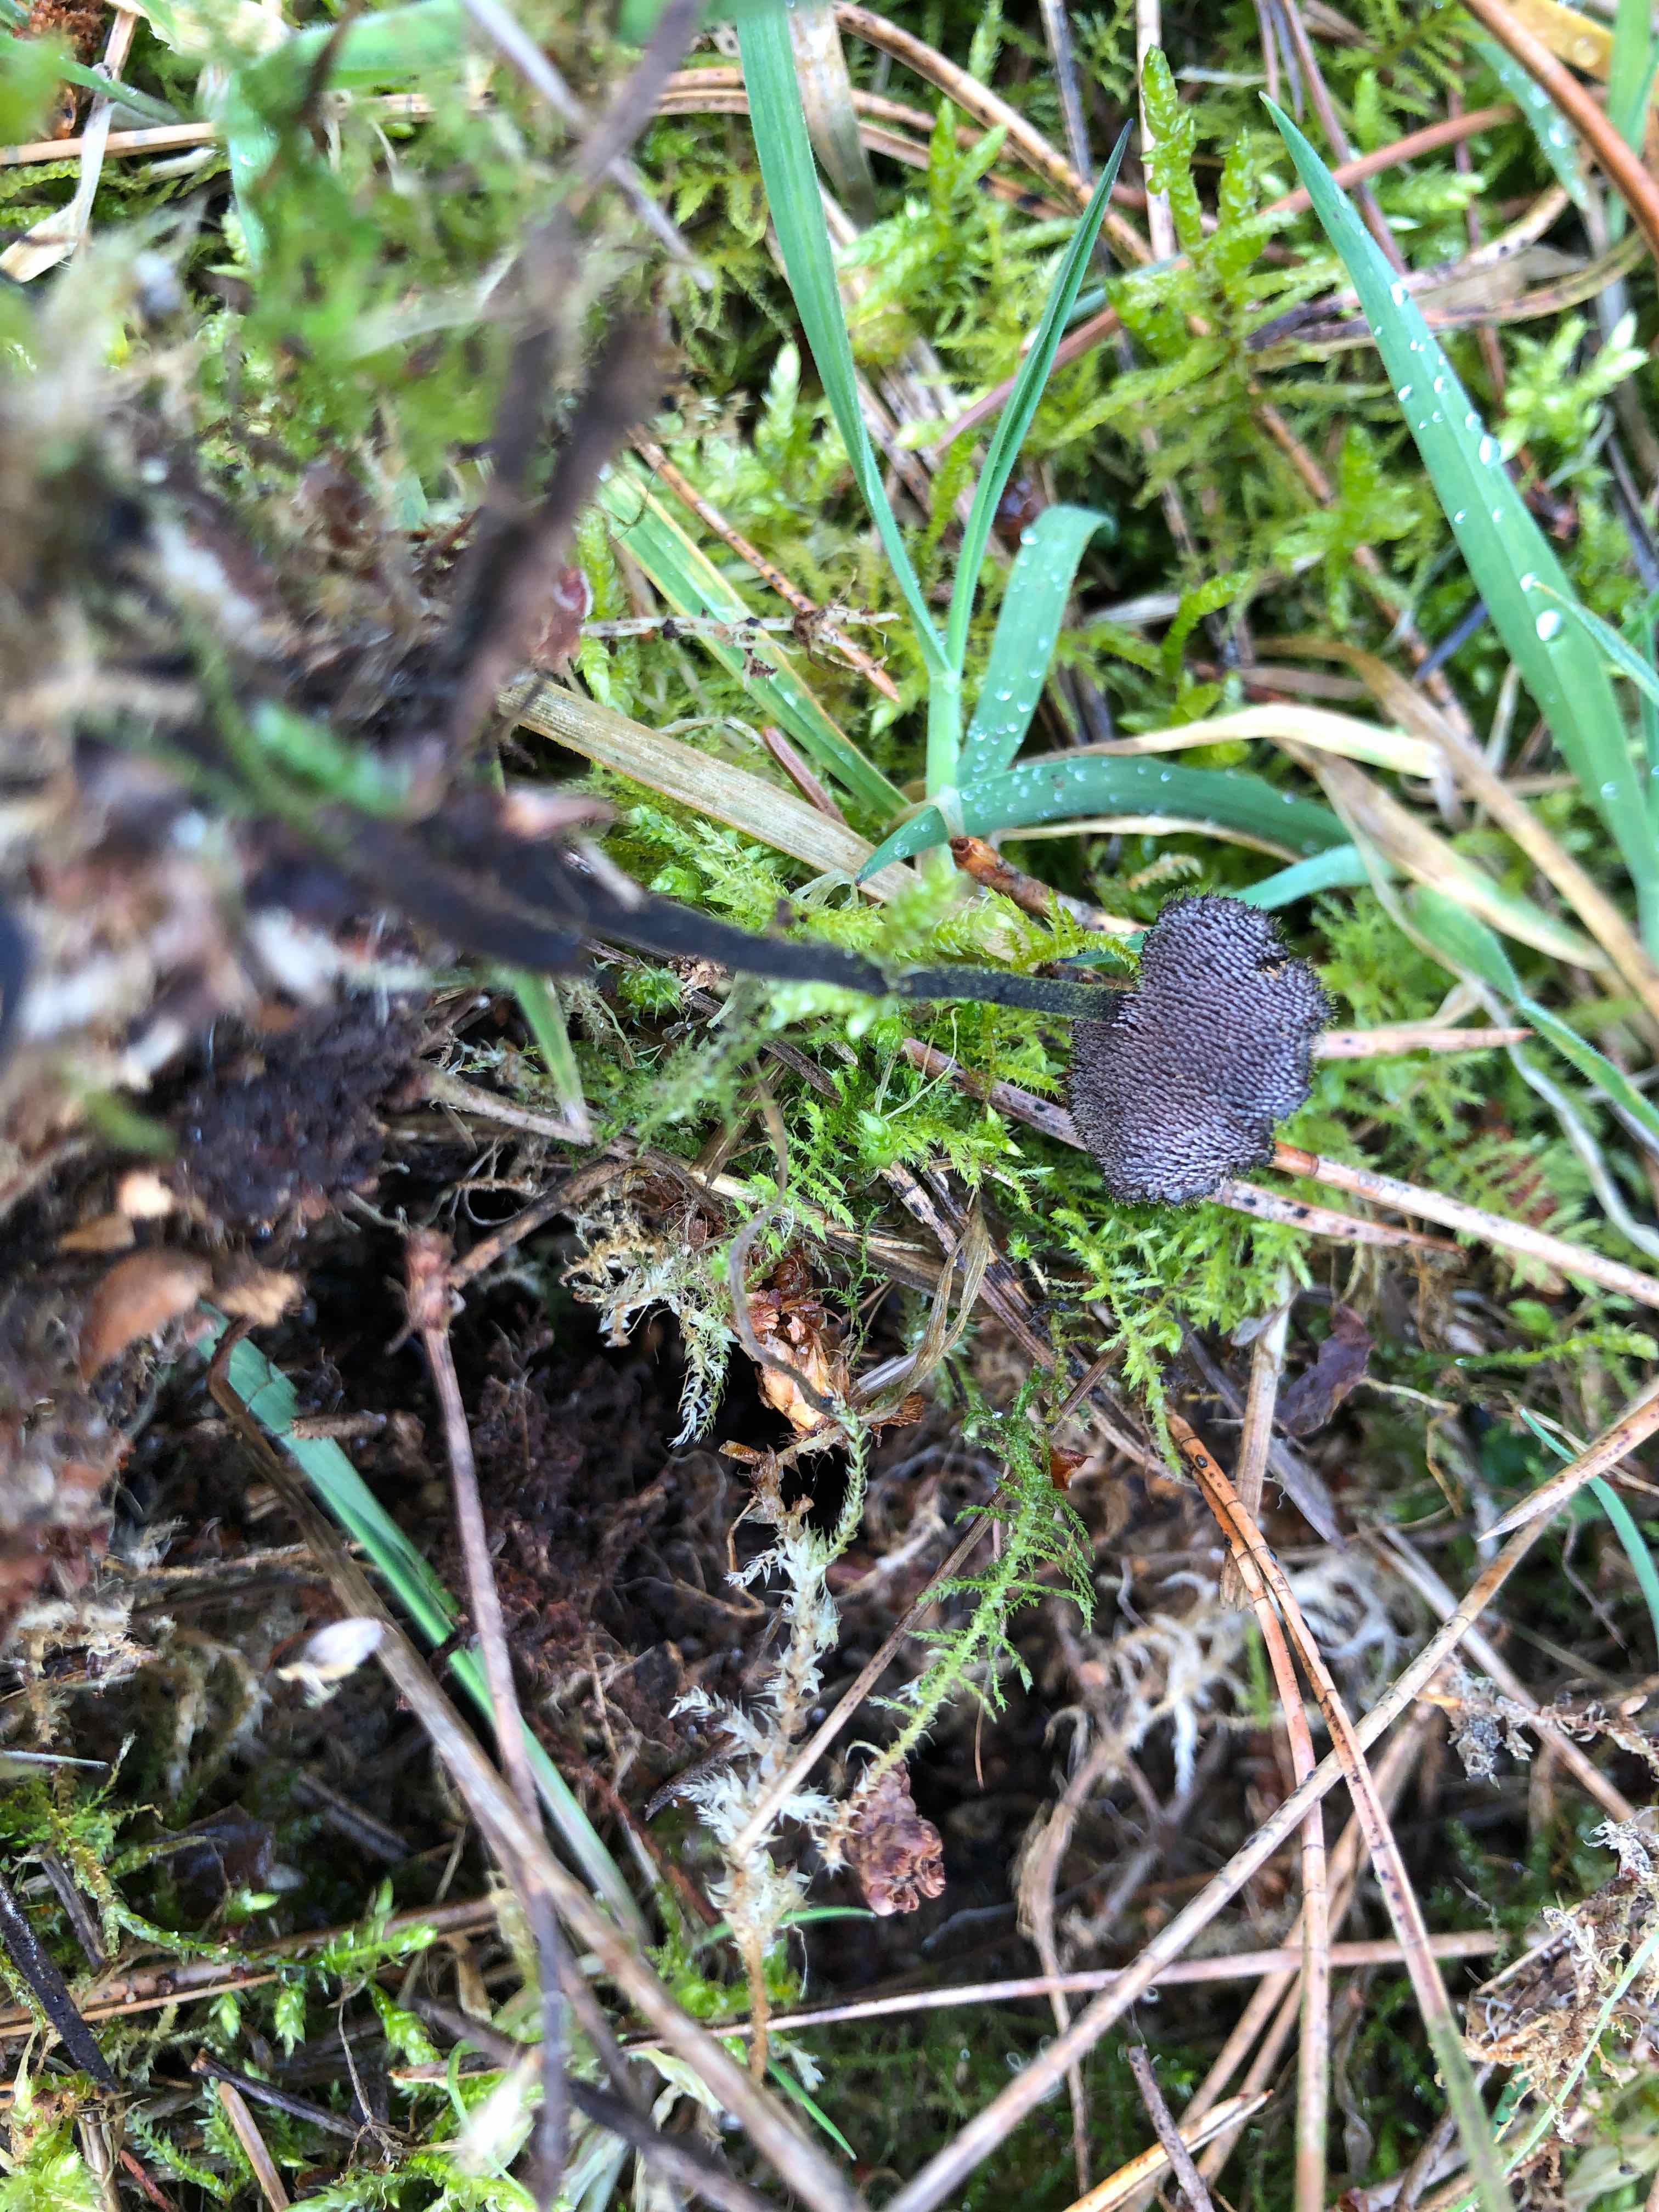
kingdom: Fungi
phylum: Basidiomycota
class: Agaricomycetes
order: Russulales
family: Auriscalpiaceae
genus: Auriscalpium
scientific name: Auriscalpium vulgare
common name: koglepigsvamp
